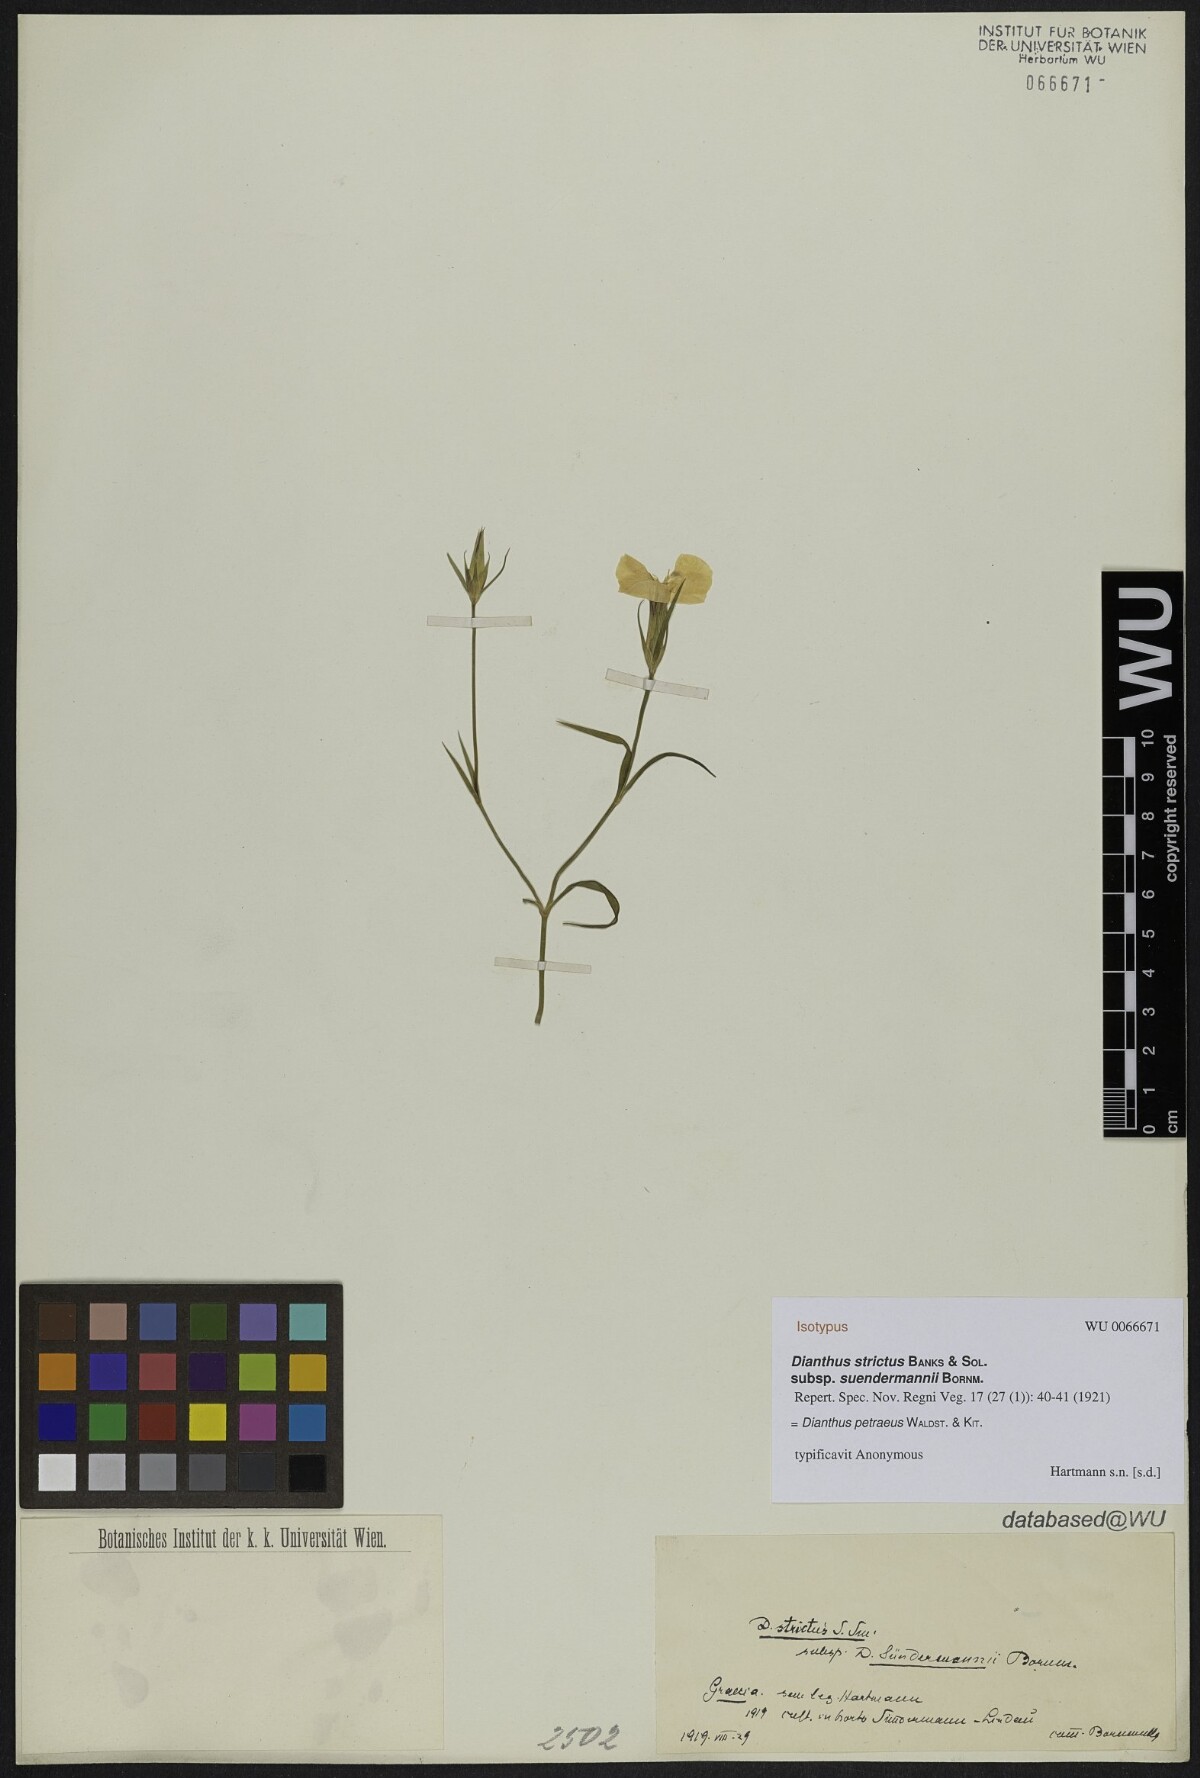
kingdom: Plantae
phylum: Tracheophyta
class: Magnoliopsida
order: Caryophyllales
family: Caryophyllaceae
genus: Dianthus
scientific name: Dianthus strictus
